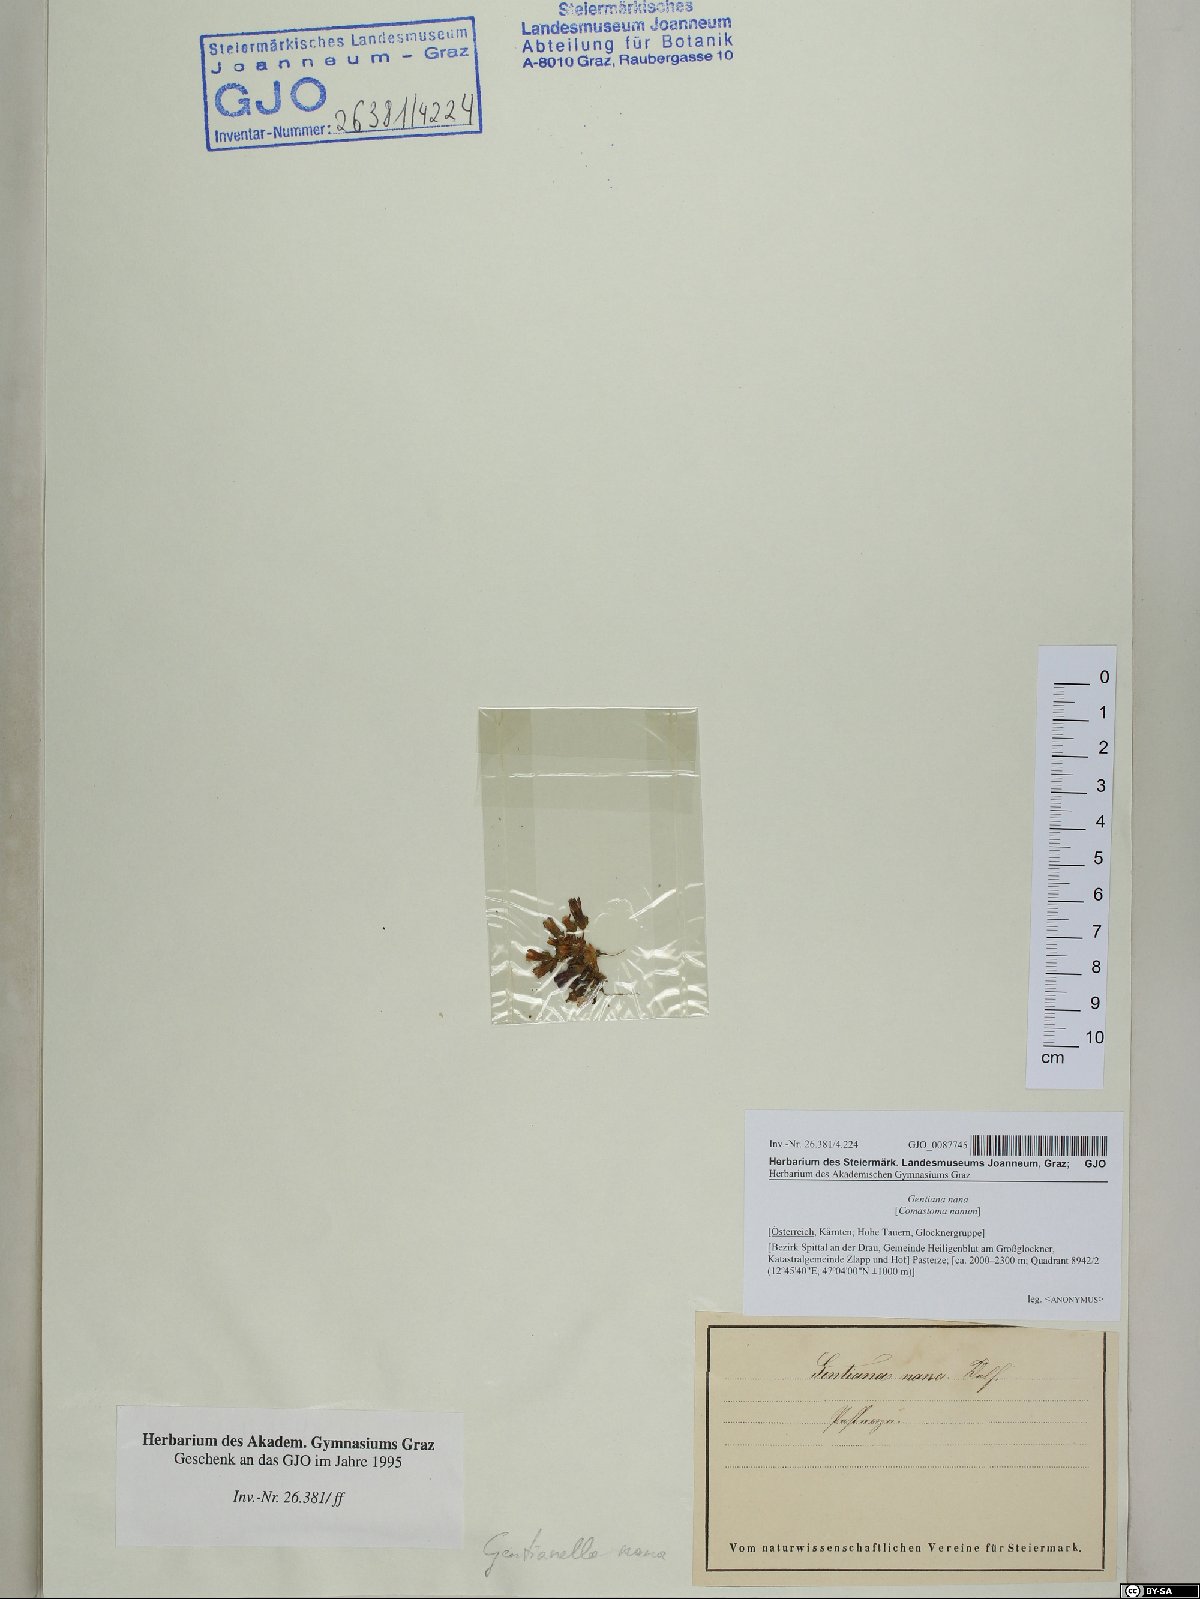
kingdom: Plantae
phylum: Tracheophyta
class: Magnoliopsida
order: Gentianales
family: Gentianaceae
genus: Comastoma
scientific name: Comastoma nanum
